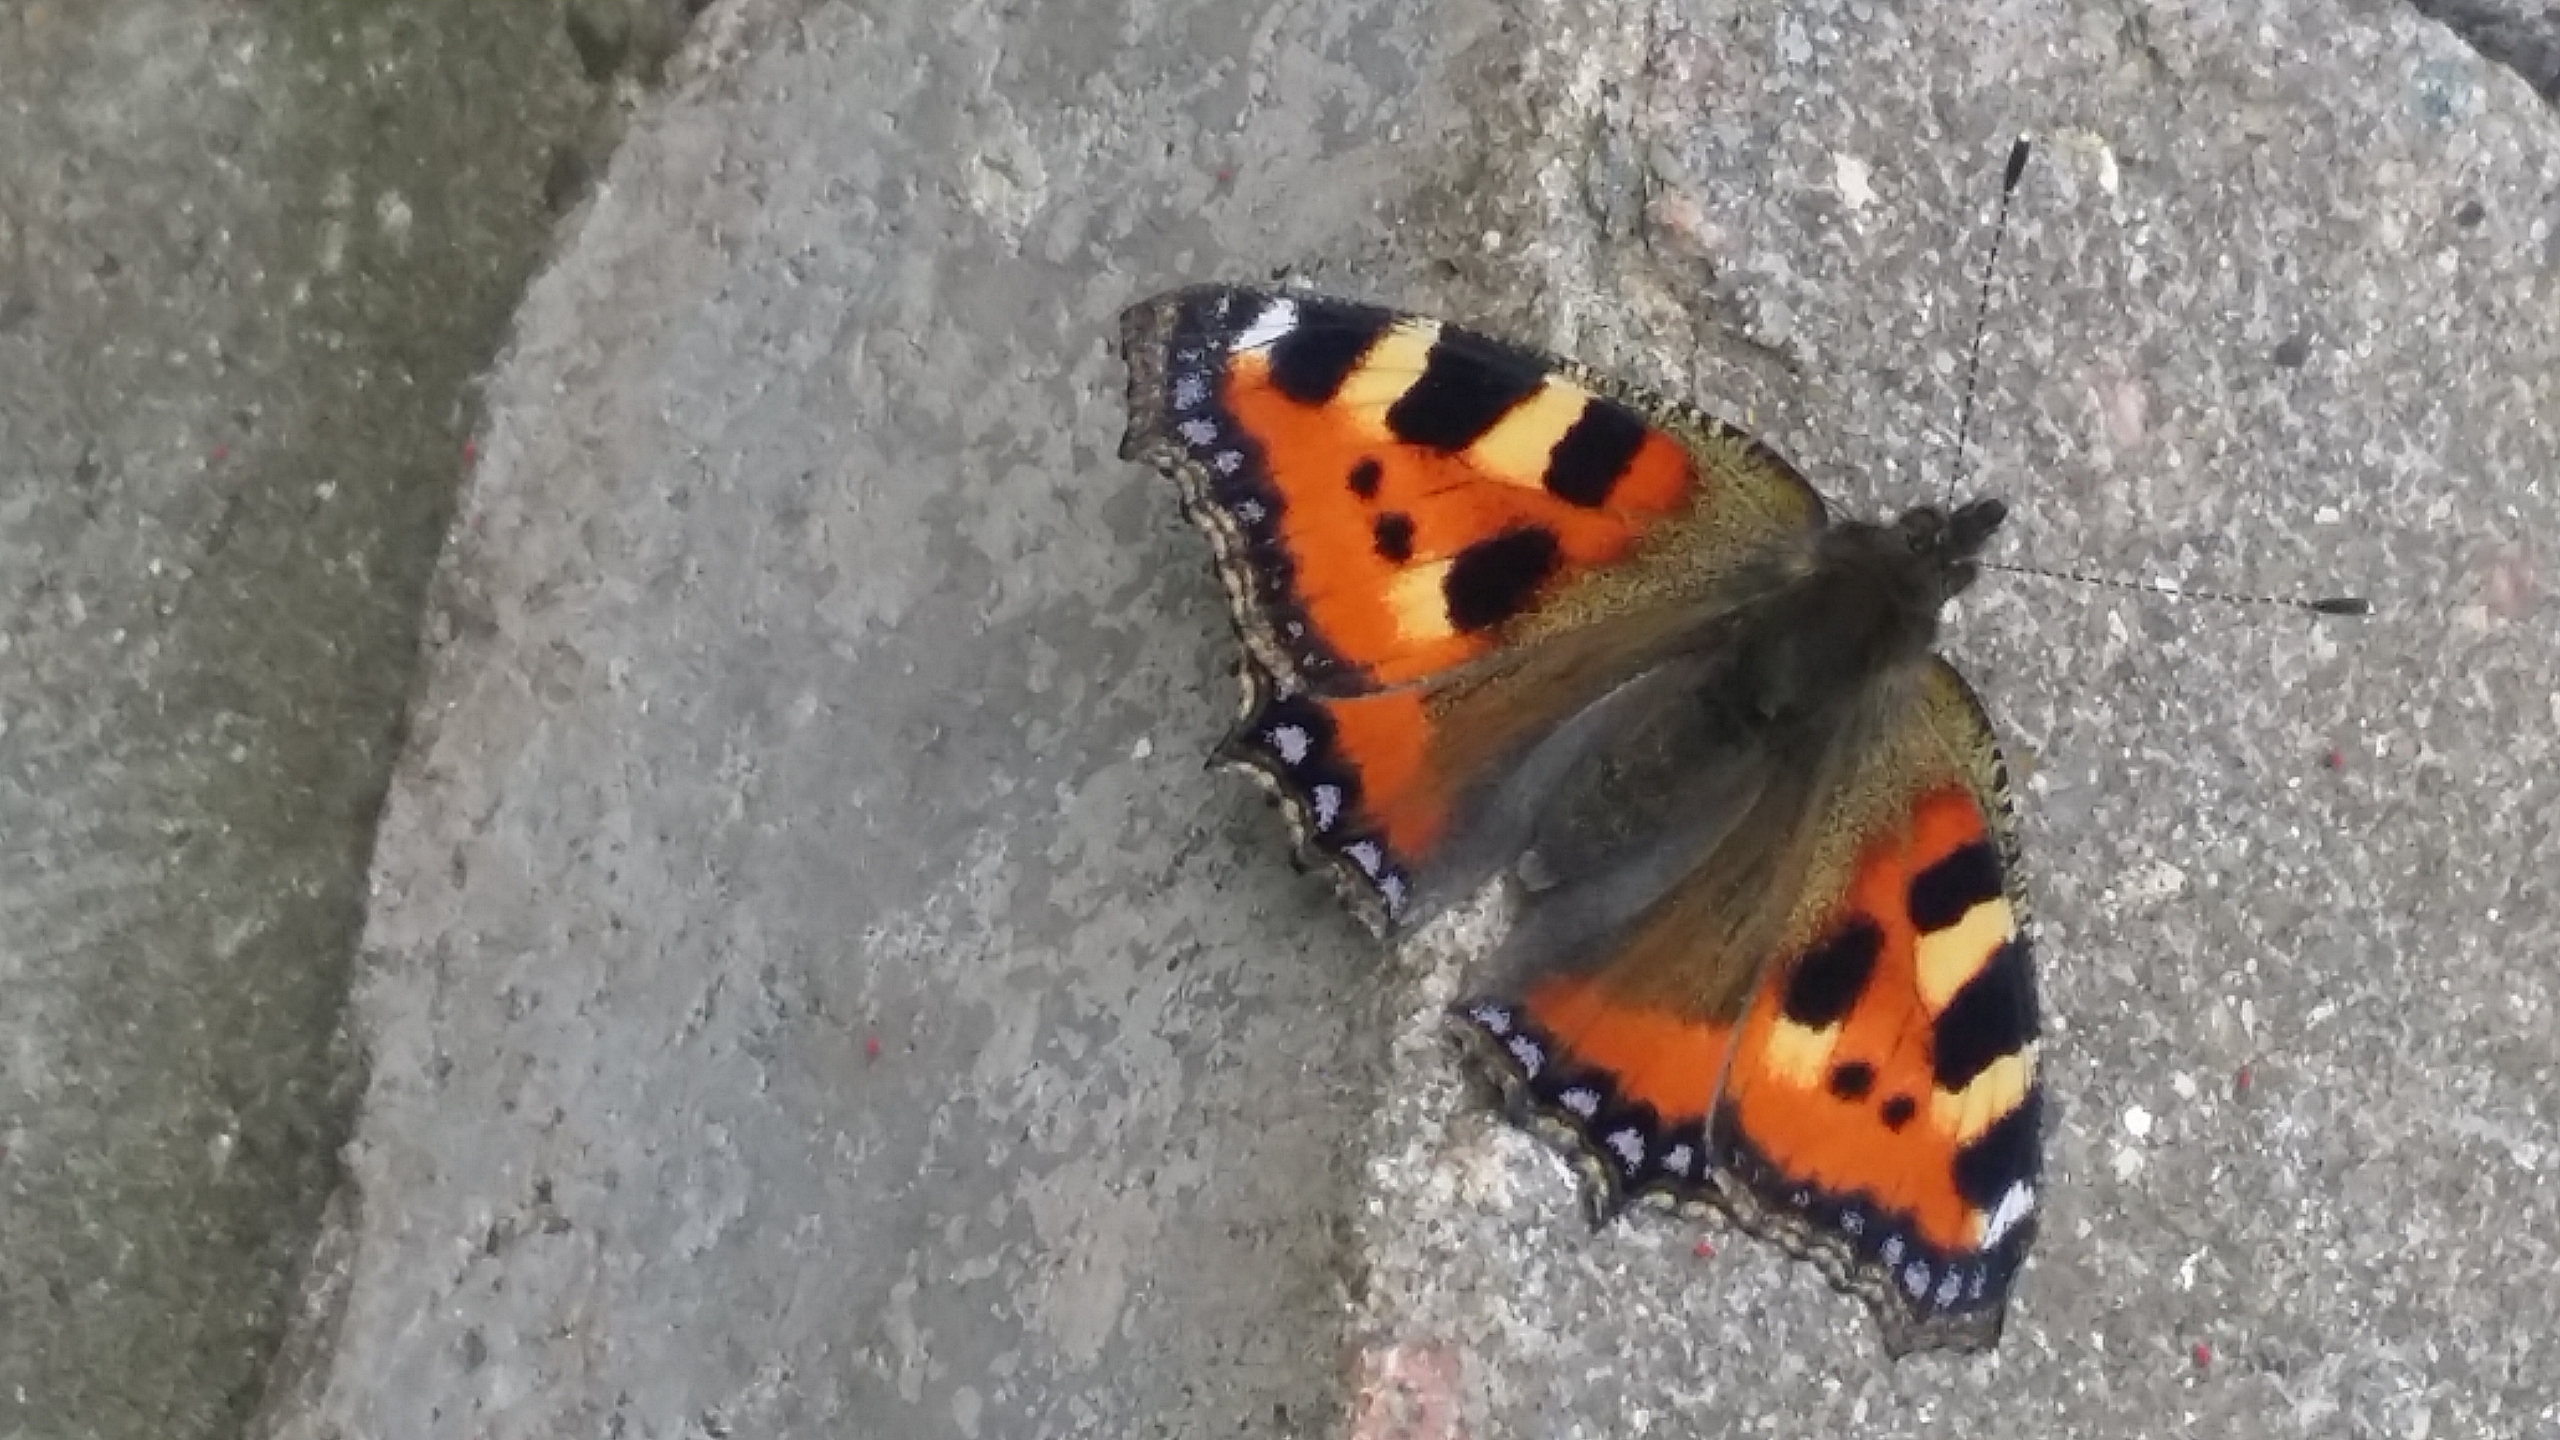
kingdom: Animalia
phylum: Arthropoda
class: Insecta
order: Lepidoptera
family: Nymphalidae
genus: Aglais
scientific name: Aglais urticae
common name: Nældens takvinge
